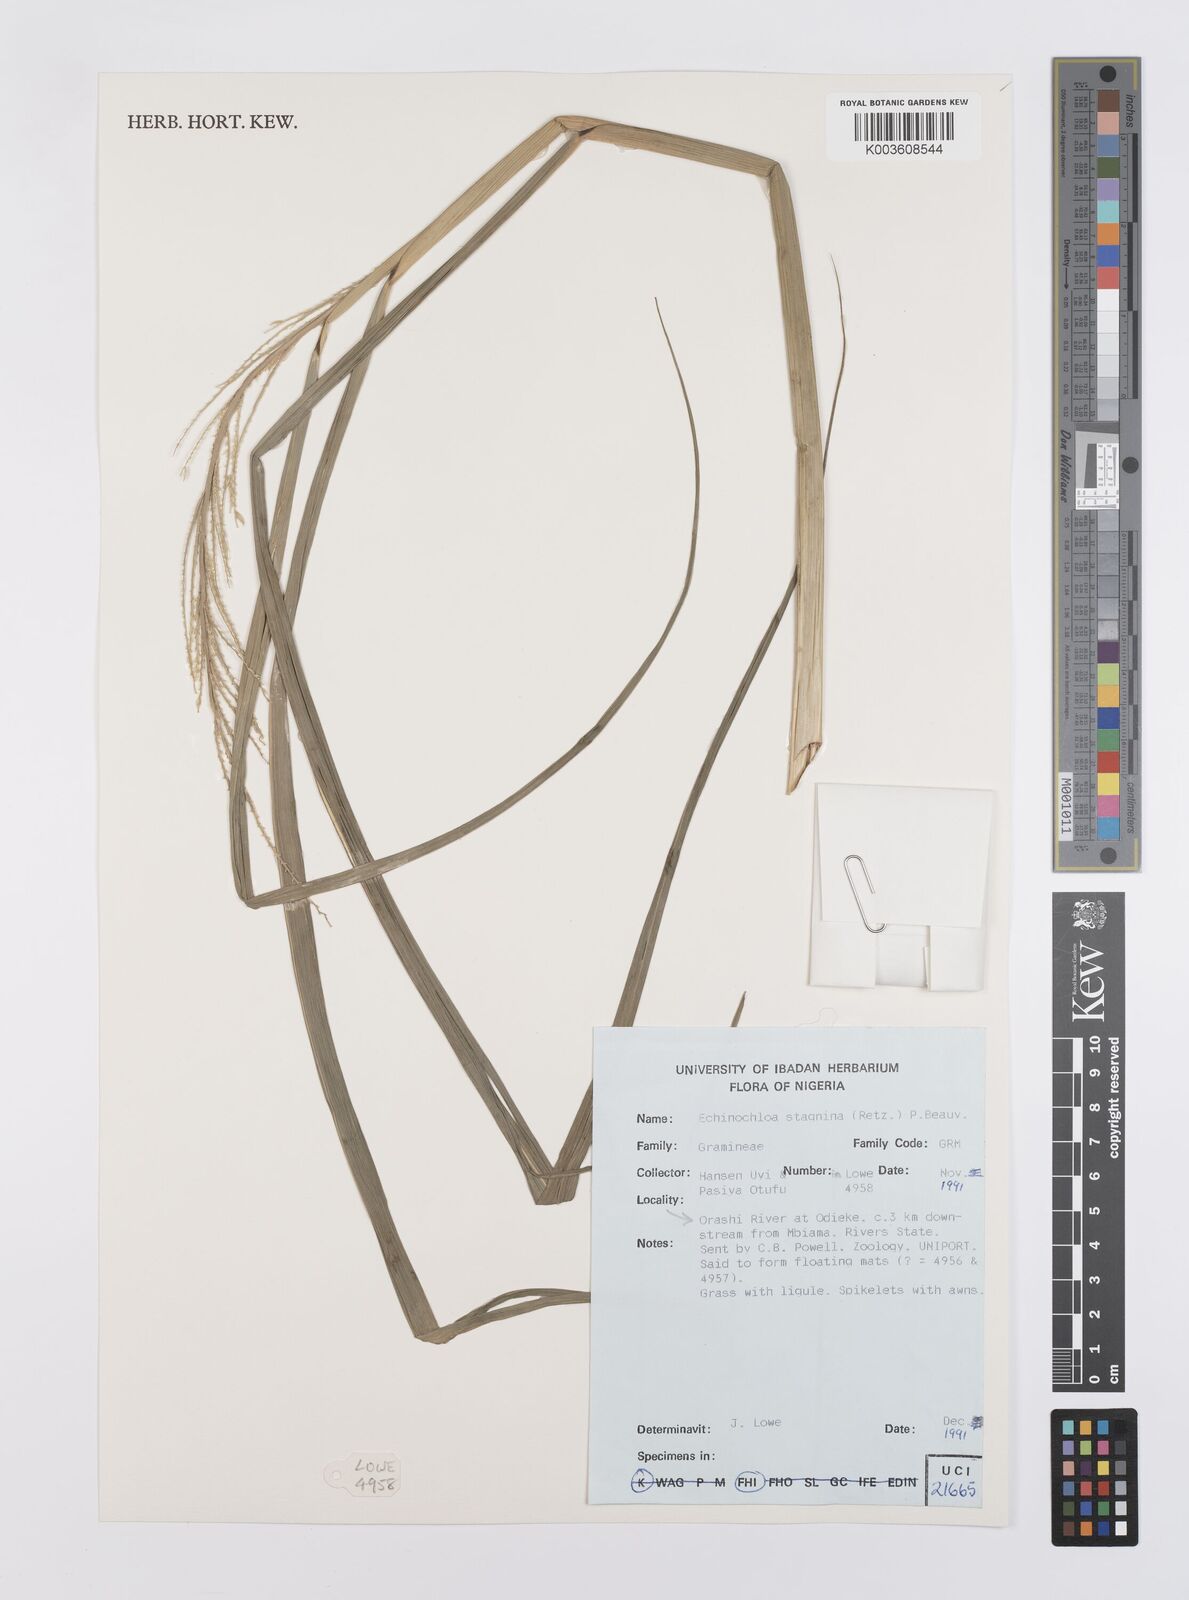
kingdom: Plantae
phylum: Tracheophyta
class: Liliopsida
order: Poales
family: Poaceae
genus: Echinochloa
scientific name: Echinochloa stagnina
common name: Burgu grass
